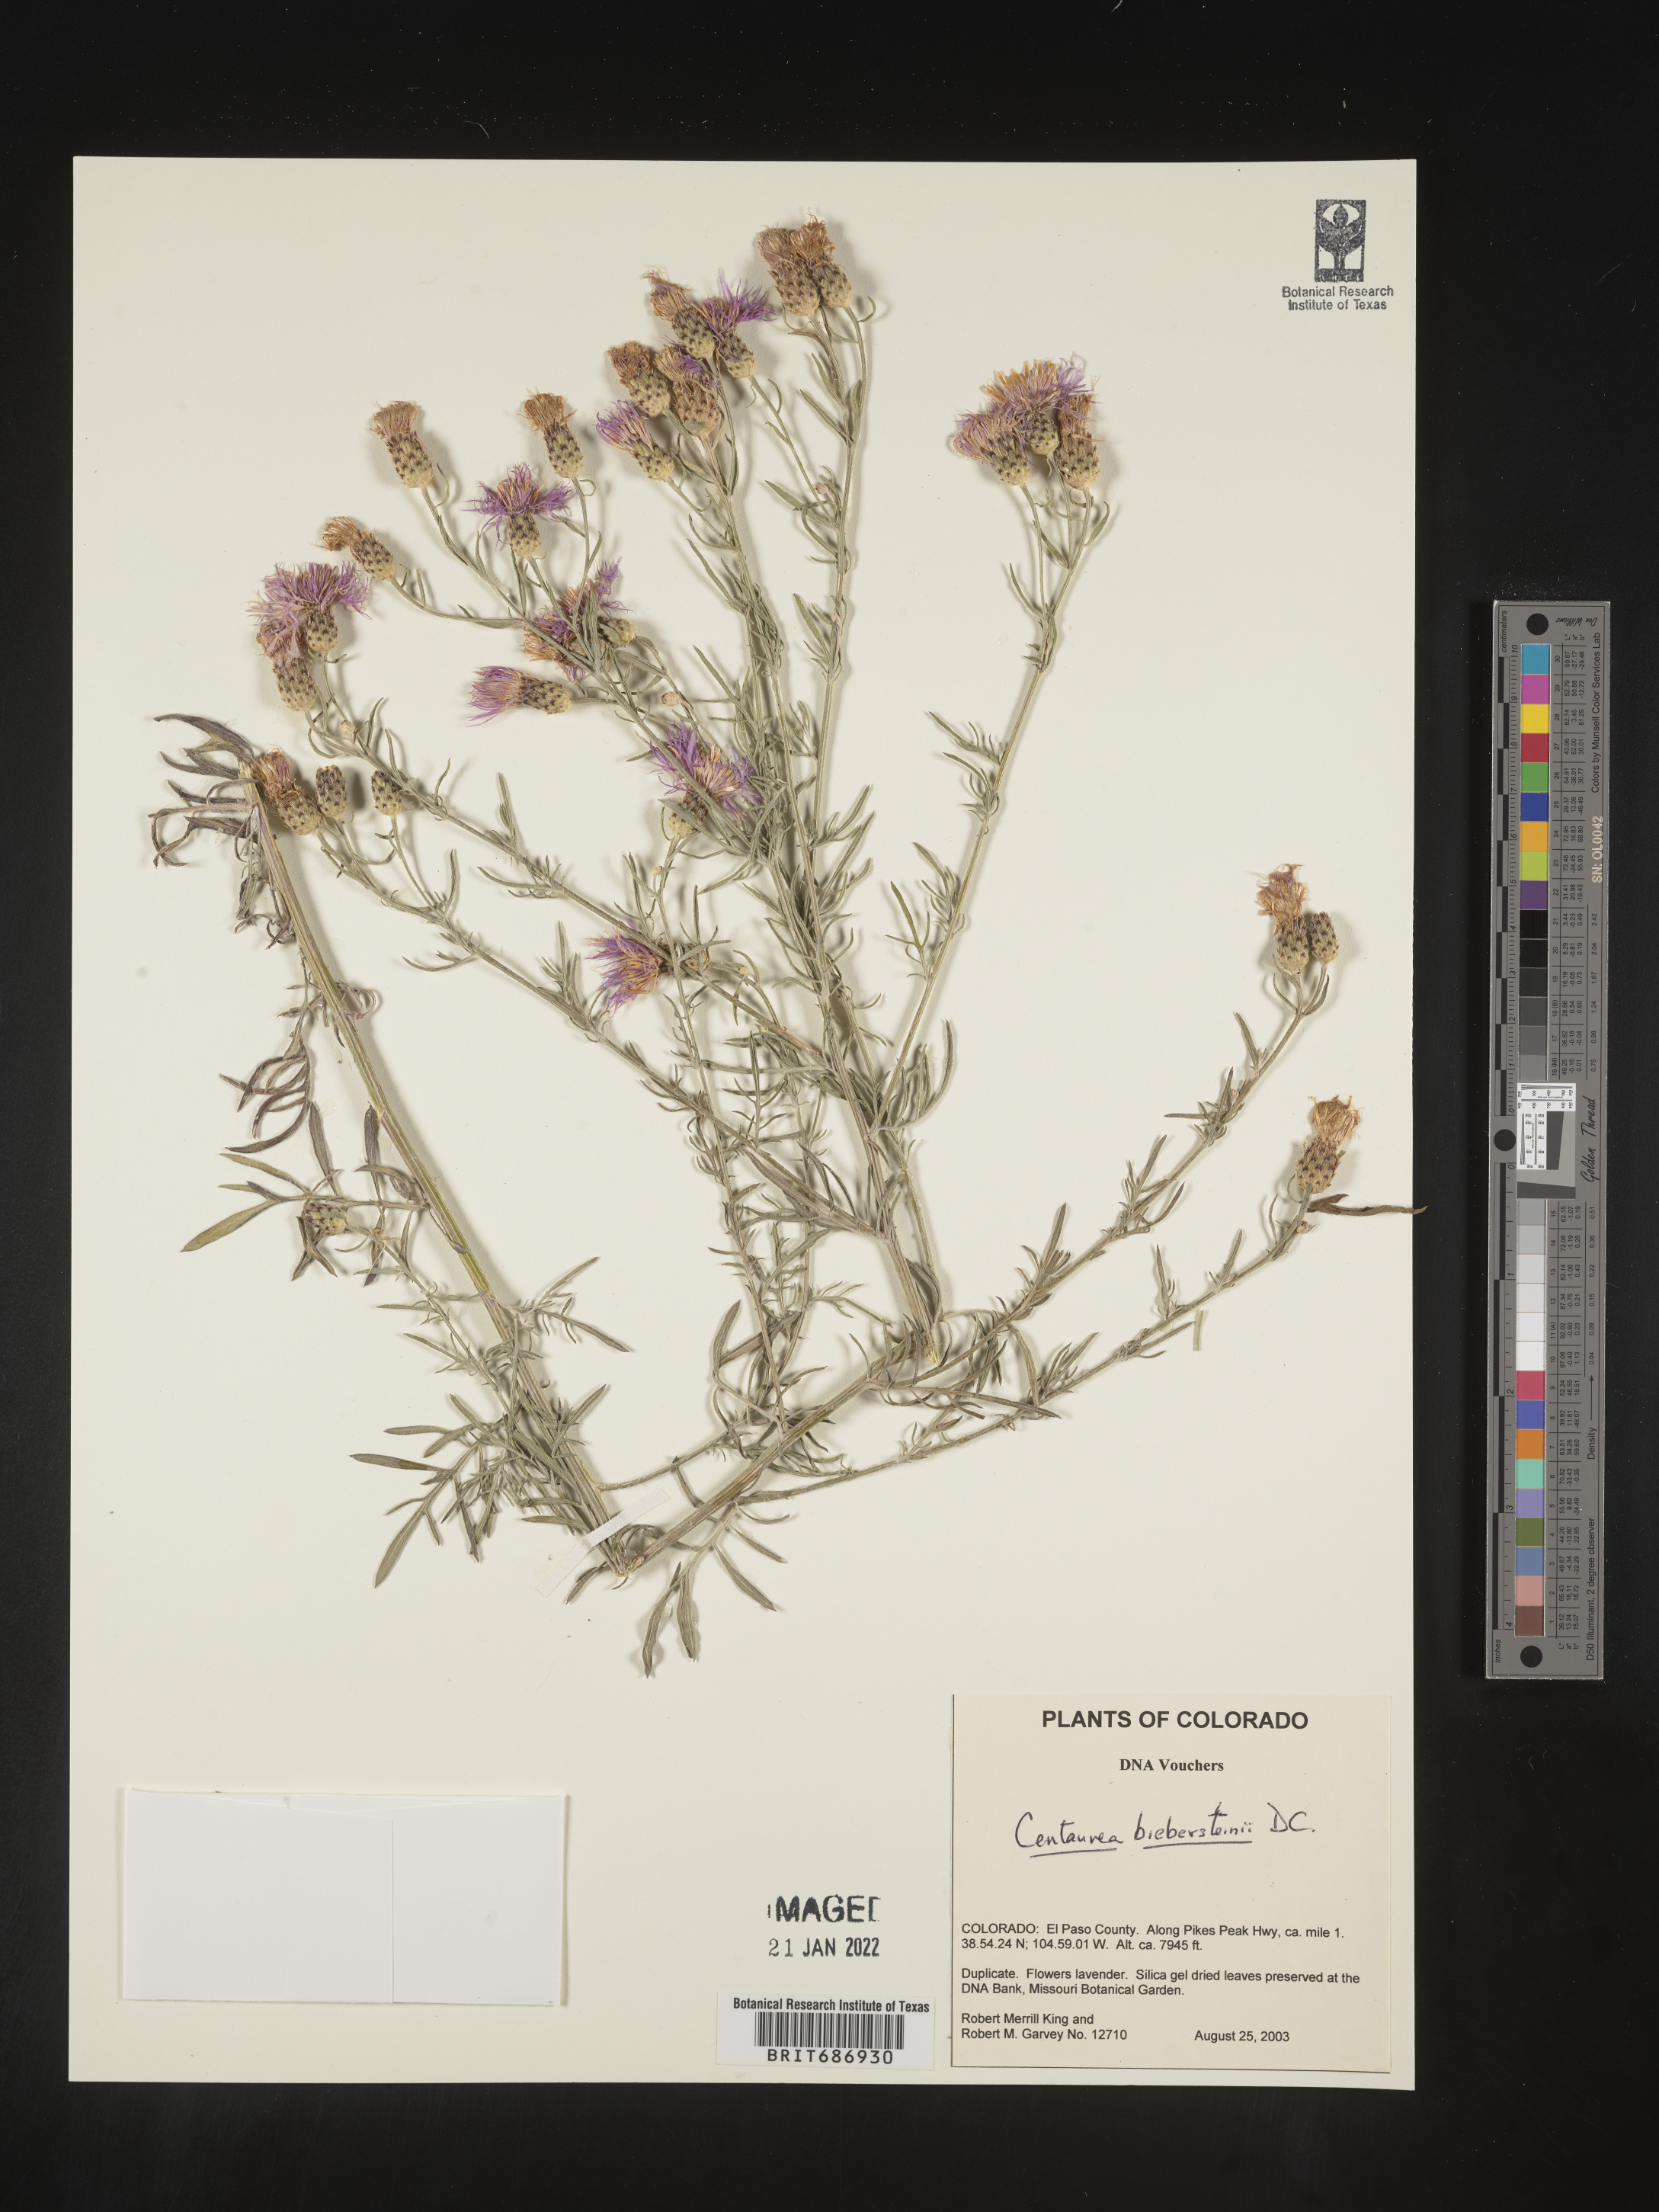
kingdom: Plantae
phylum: Tracheophyta
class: Magnoliopsida
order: Asterales
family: Asteraceae
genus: Centaurea
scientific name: Centaurea
